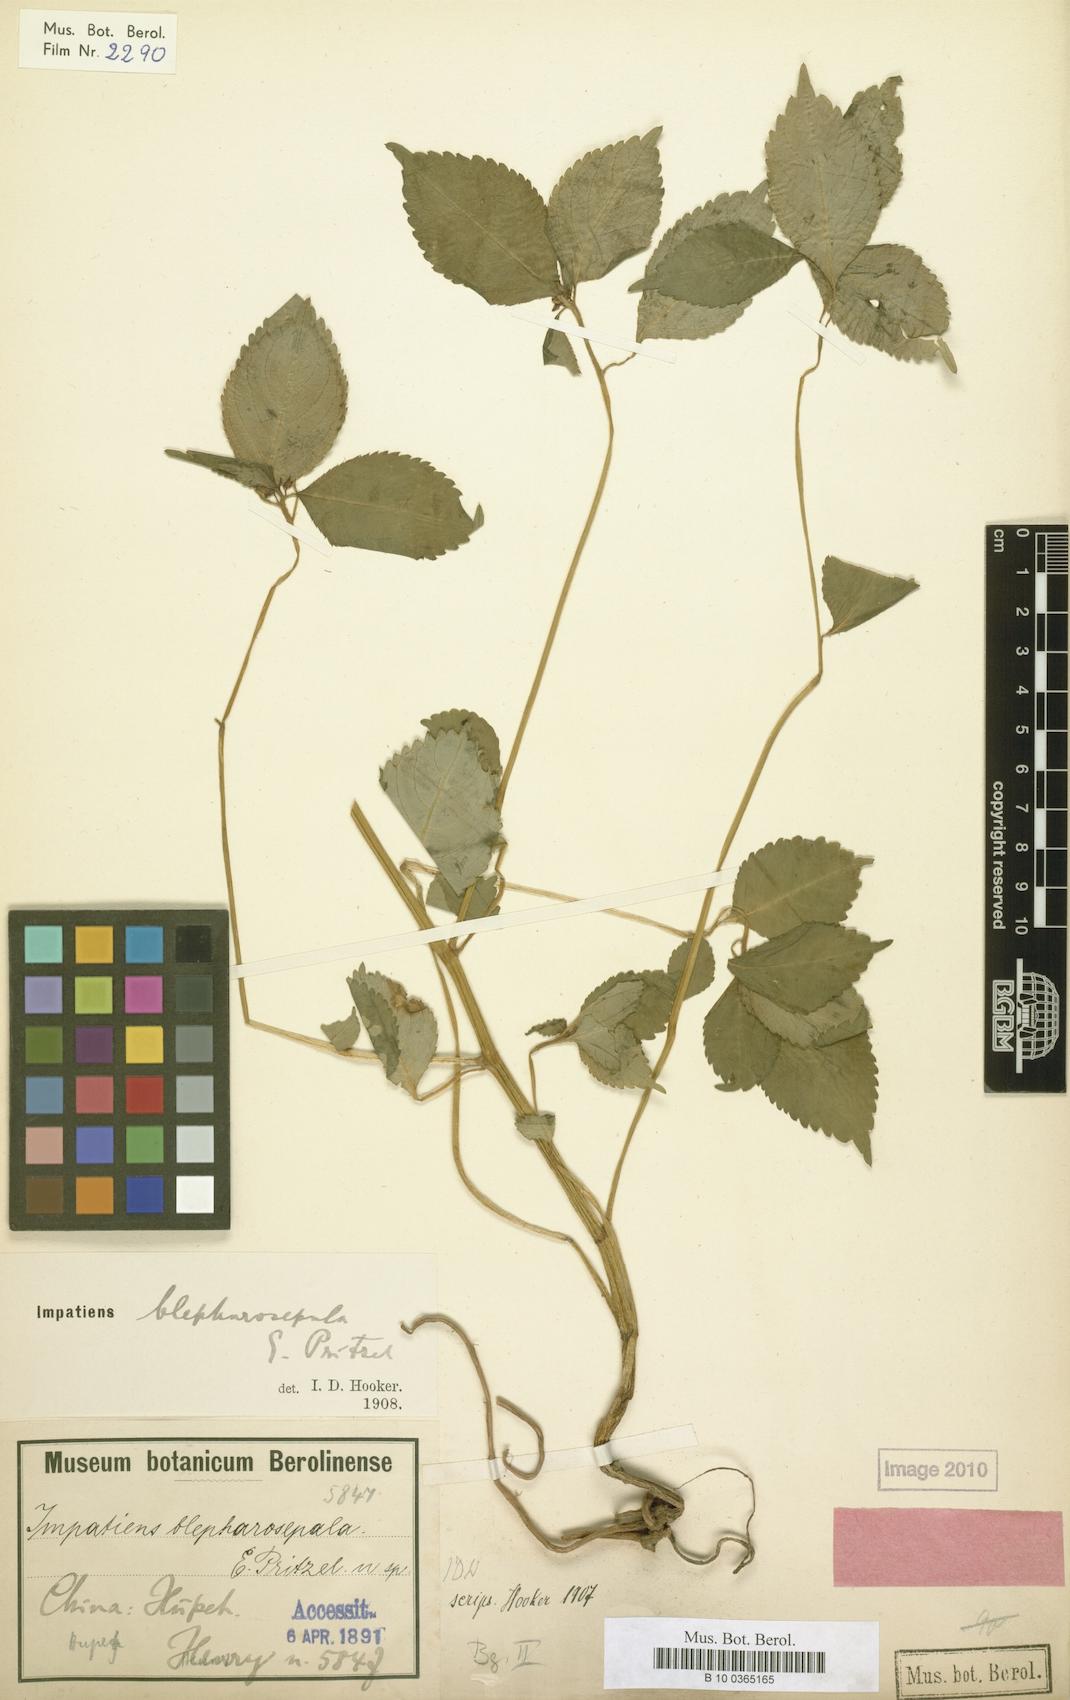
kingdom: Plantae
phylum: Tracheophyta
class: Magnoliopsida
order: Ericales
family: Balsaminaceae
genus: Impatiens
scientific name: Impatiens blepharosepala
